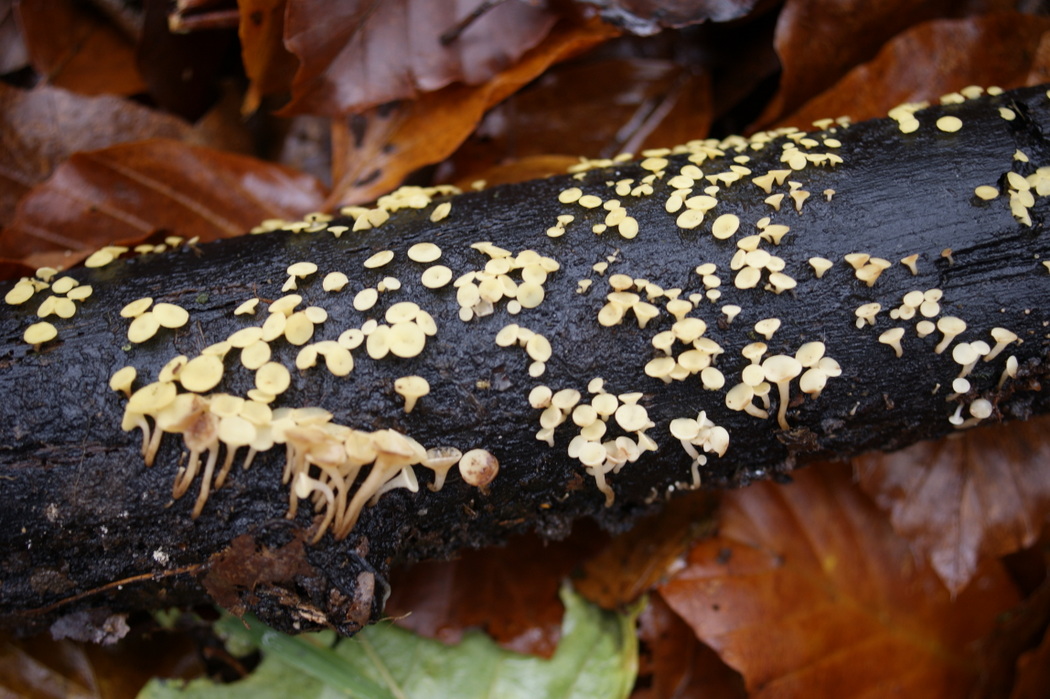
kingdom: Fungi
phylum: Ascomycota
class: Leotiomycetes
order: Helotiales
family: Pezizellaceae
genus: Calycina
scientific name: Calycina citrina
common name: almindelig gulskive
